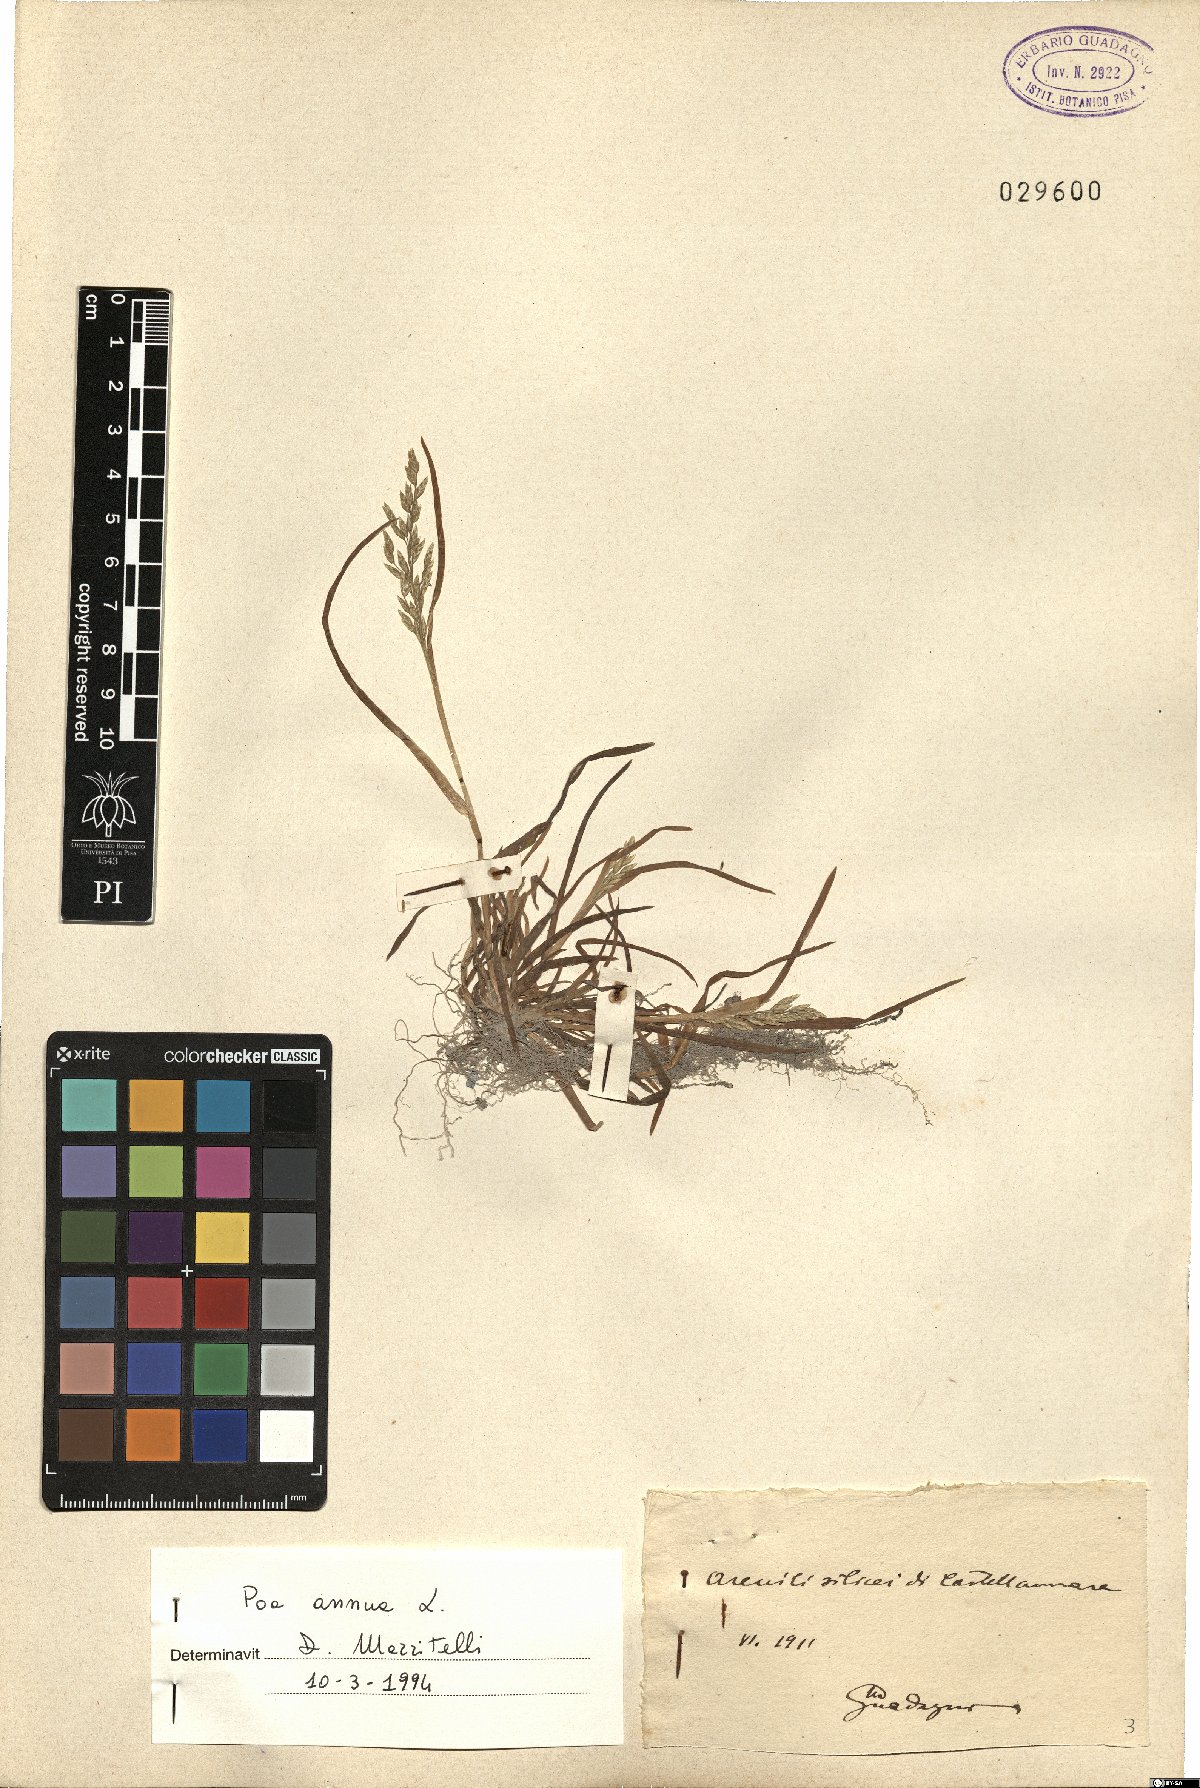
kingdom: Plantae
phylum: Tracheophyta
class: Liliopsida
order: Poales
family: Poaceae
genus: Poa
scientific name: Poa annua
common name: Annual bluegrass
